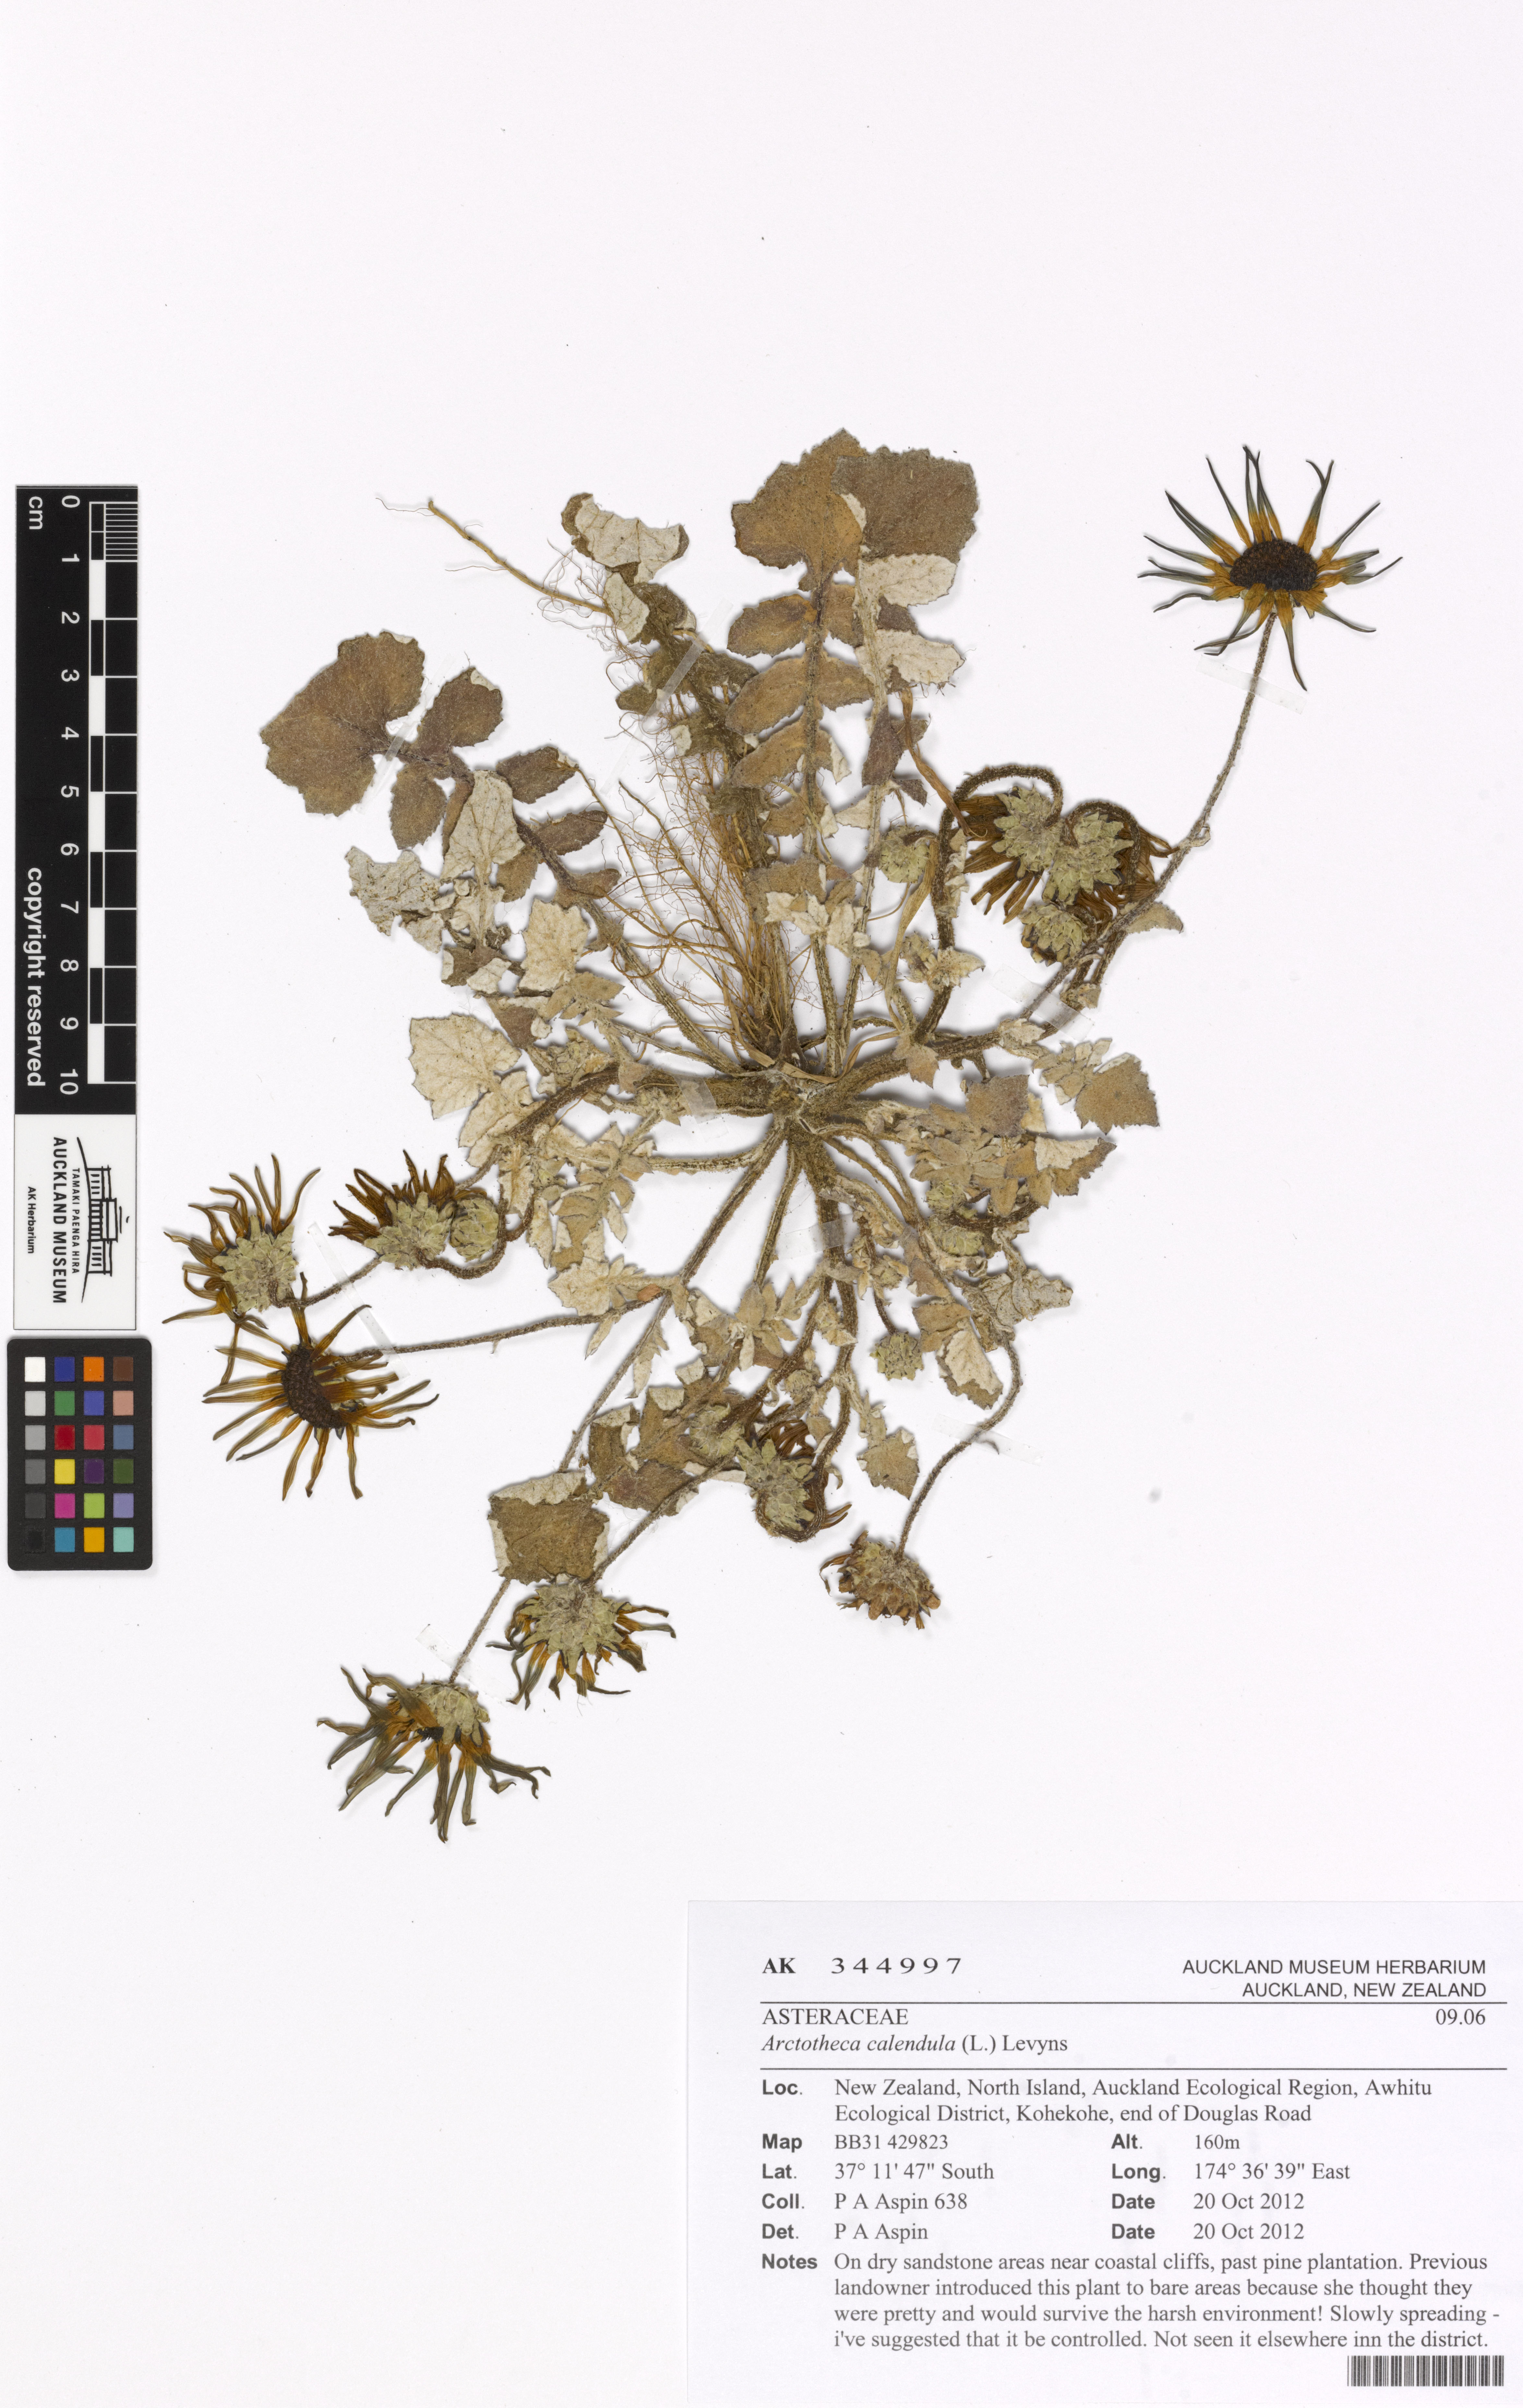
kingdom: Plantae
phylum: Tracheophyta
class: Magnoliopsida
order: Asterales
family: Asteraceae
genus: Arctotheca
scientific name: Arctotheca calendula
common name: Capeweed
